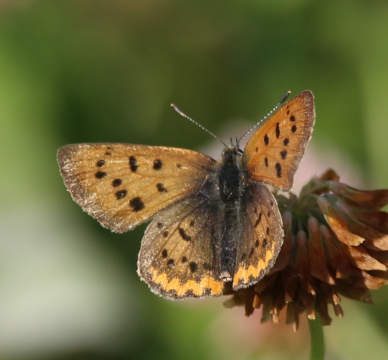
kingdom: Animalia
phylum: Arthropoda
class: Insecta
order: Lepidoptera
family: Sesiidae
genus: Sesia
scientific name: Sesia Lycaena helloides
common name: Purplish Copper
